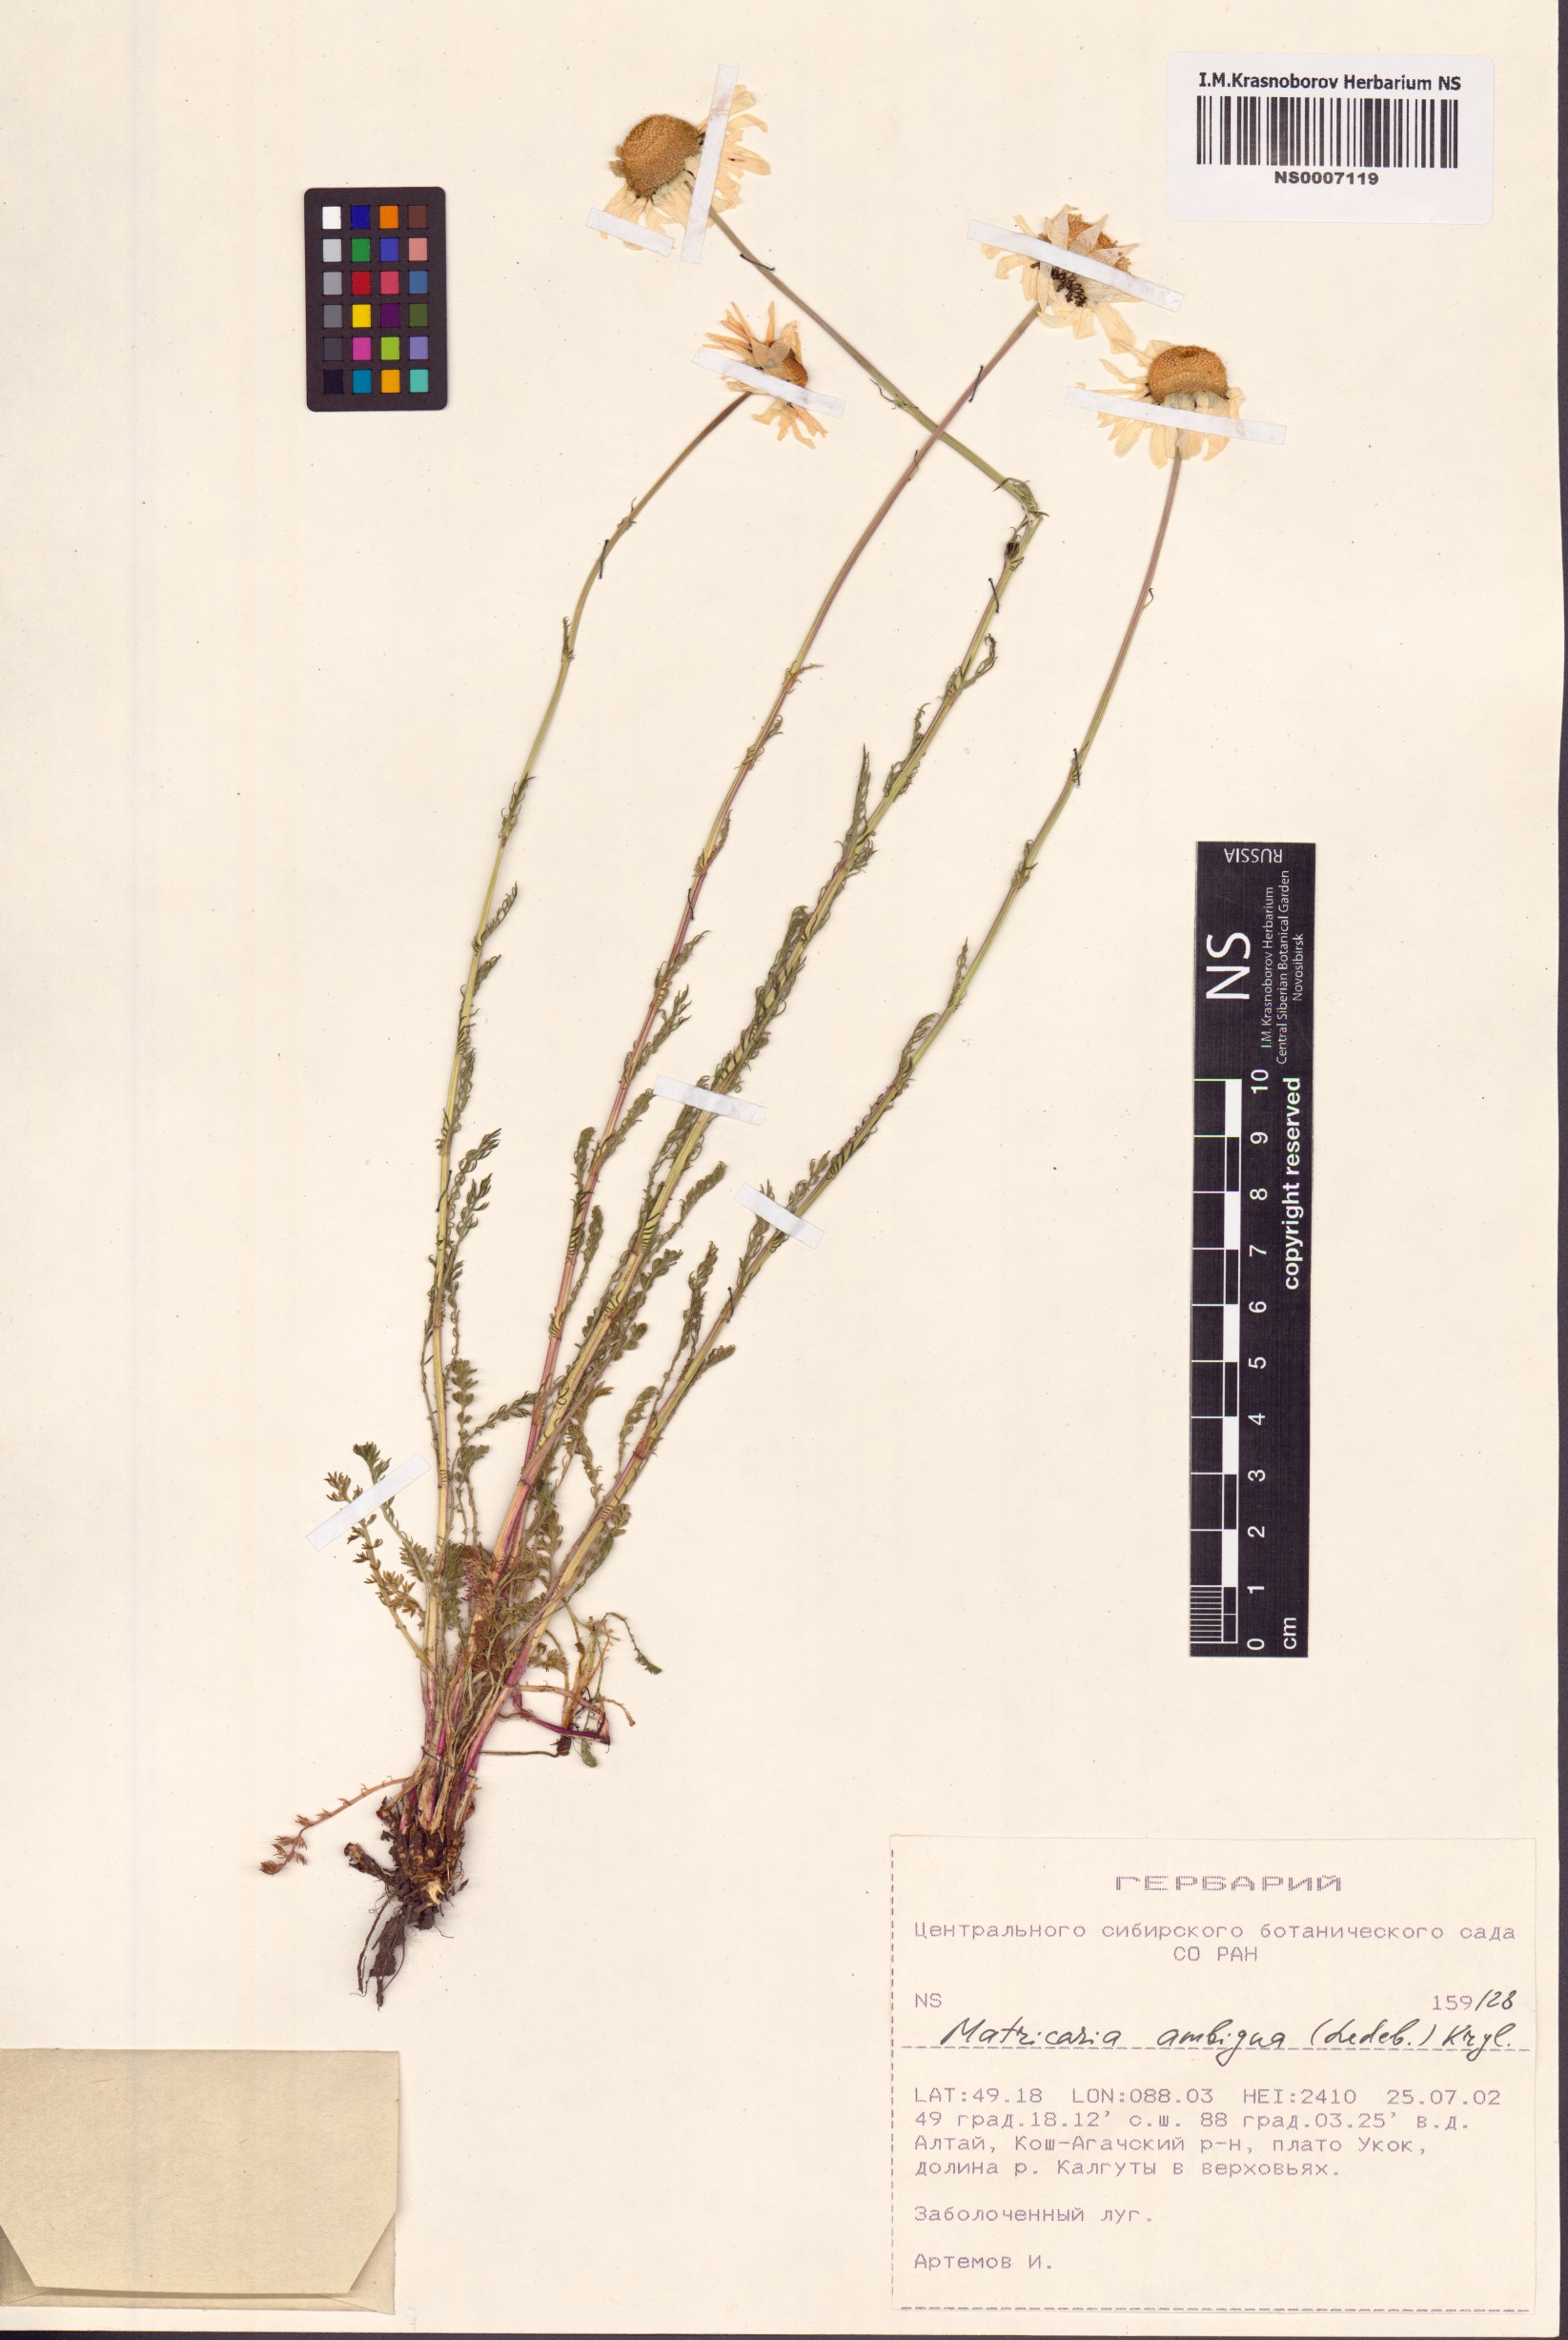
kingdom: Plantae
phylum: Tracheophyta
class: Magnoliopsida
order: Asterales
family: Asteraceae
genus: Tripleurospermum
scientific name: Tripleurospermum ambiguum
